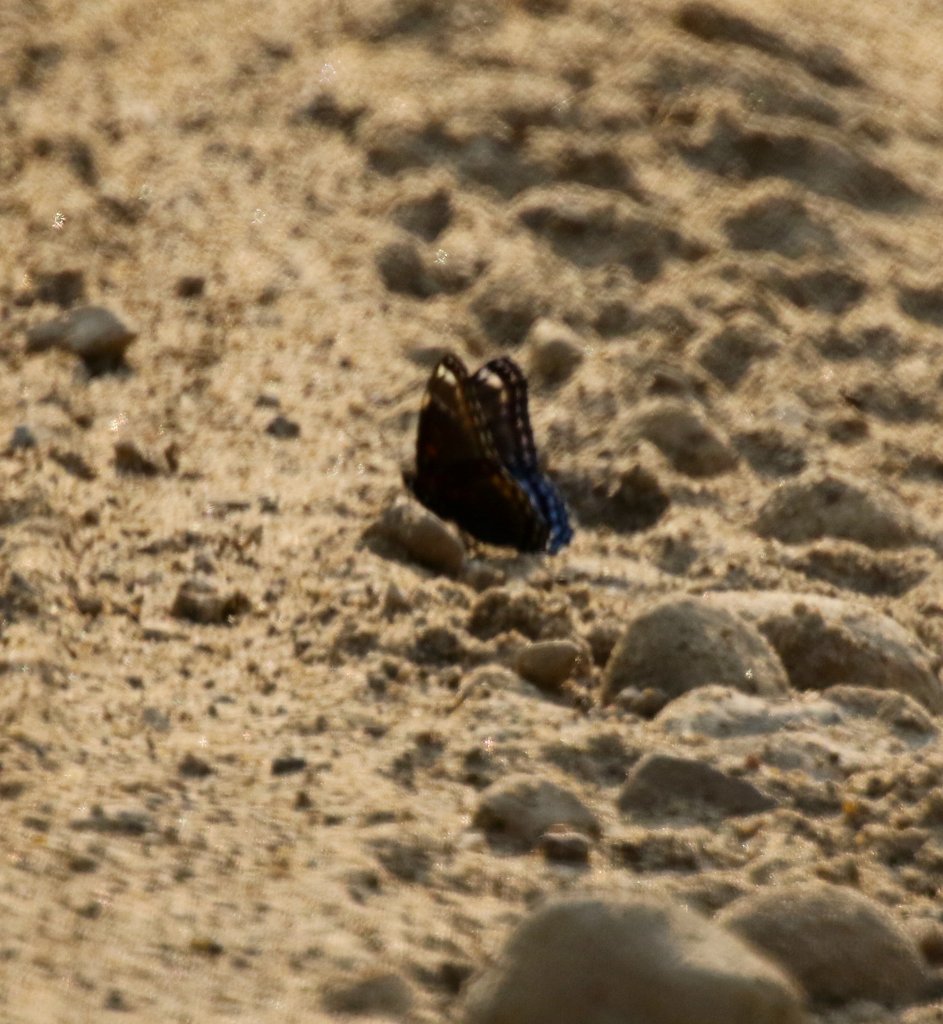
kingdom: Animalia
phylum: Arthropoda
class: Insecta
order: Lepidoptera
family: Nymphalidae
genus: Limenitis
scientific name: Limenitis arthemis
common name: Red-spotted Admiral
